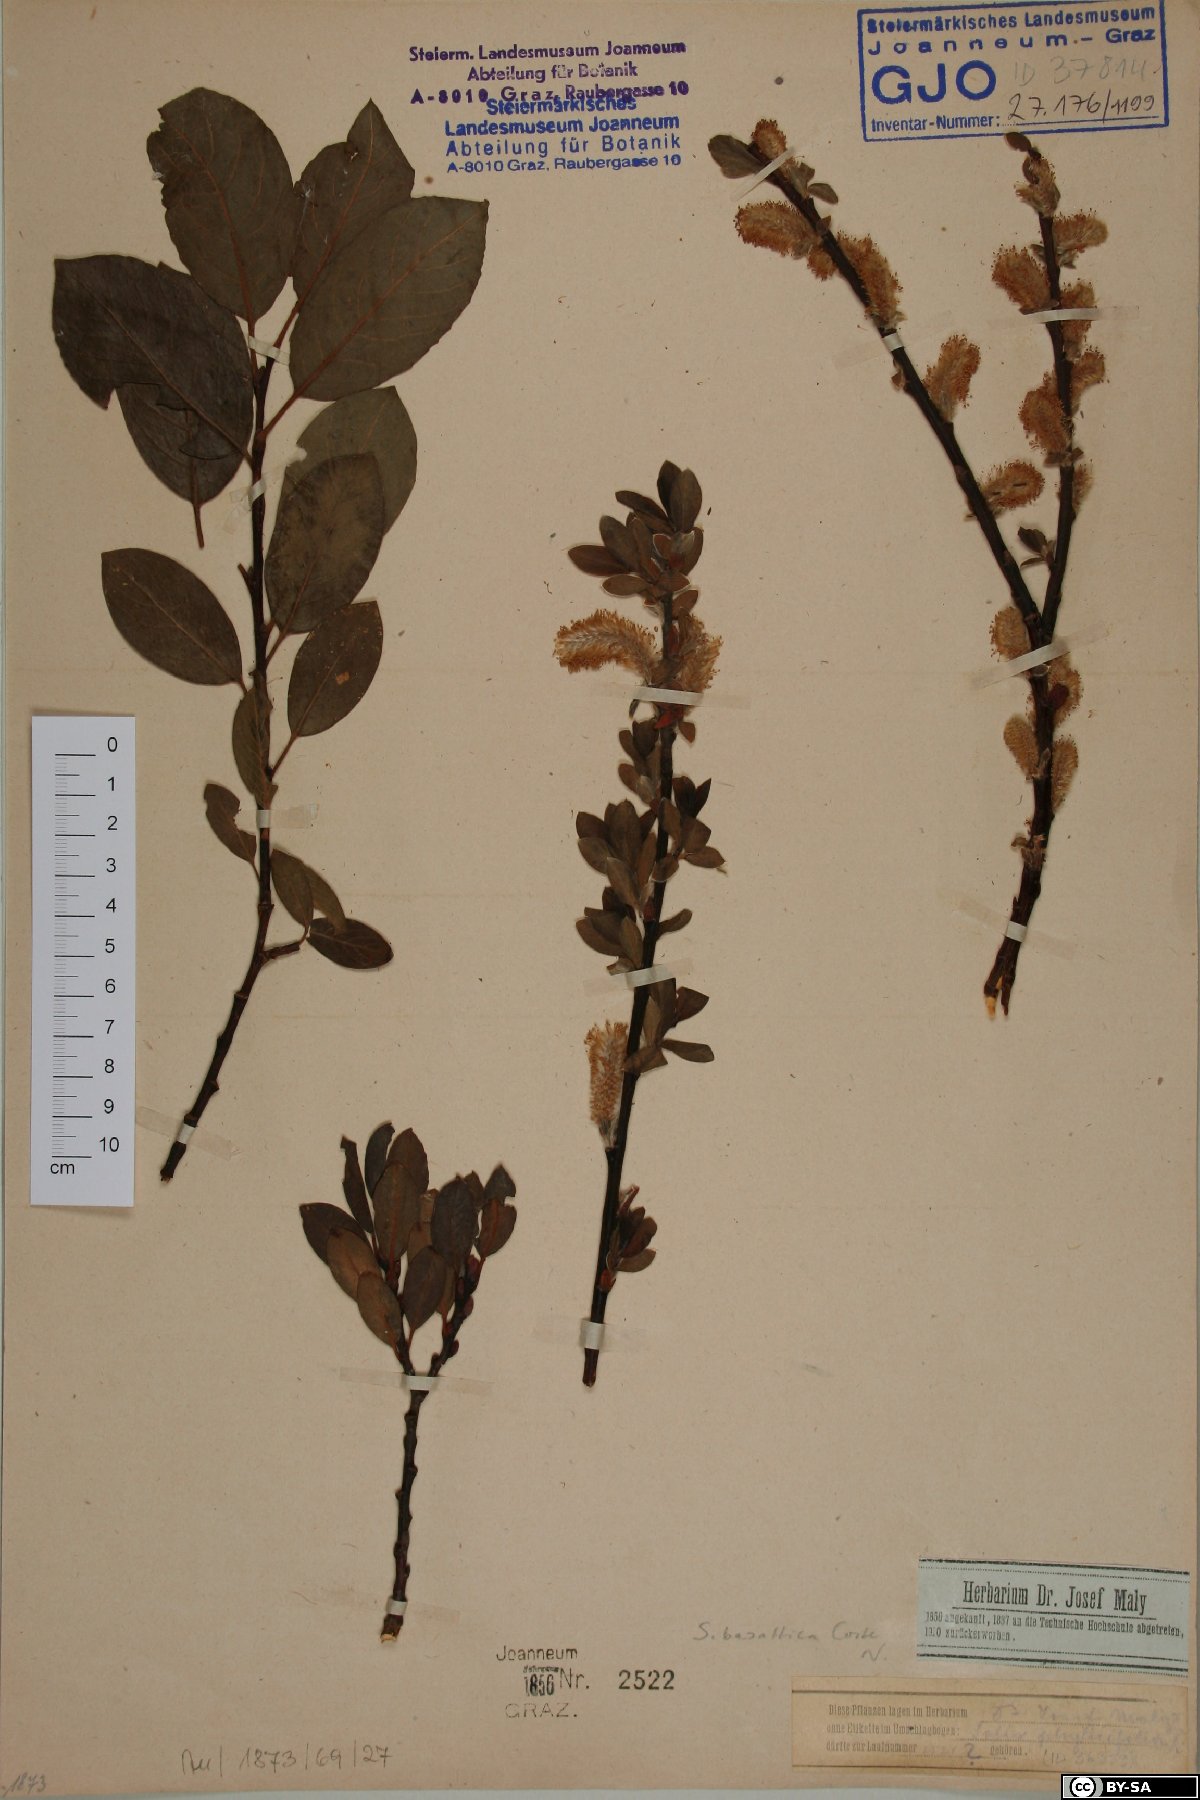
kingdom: Plantae
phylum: Tracheophyta
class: Magnoliopsida
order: Malpighiales
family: Salicaceae
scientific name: Salicaceae
